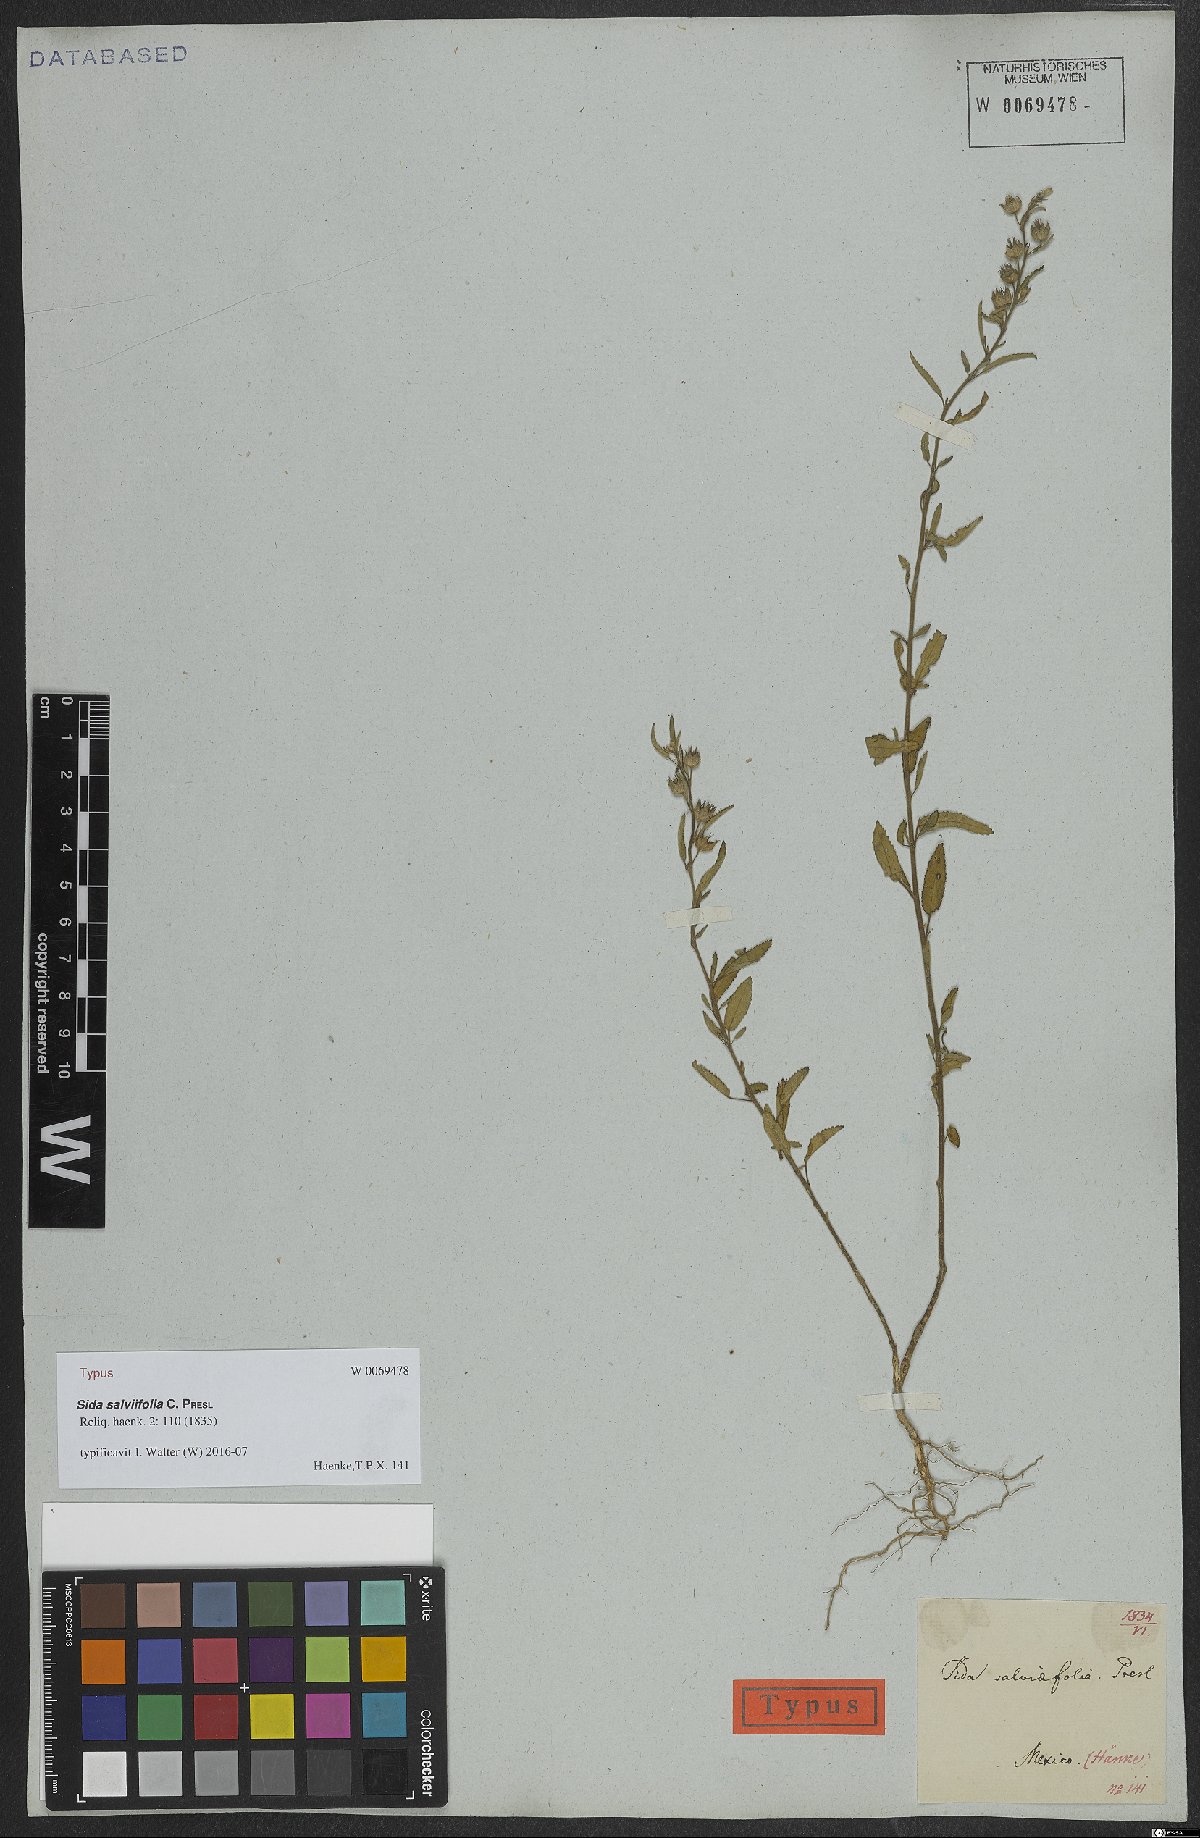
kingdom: Plantae
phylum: Tracheophyta
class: Magnoliopsida
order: Malvales
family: Malvaceae
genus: Sida
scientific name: Sida salviifolia
